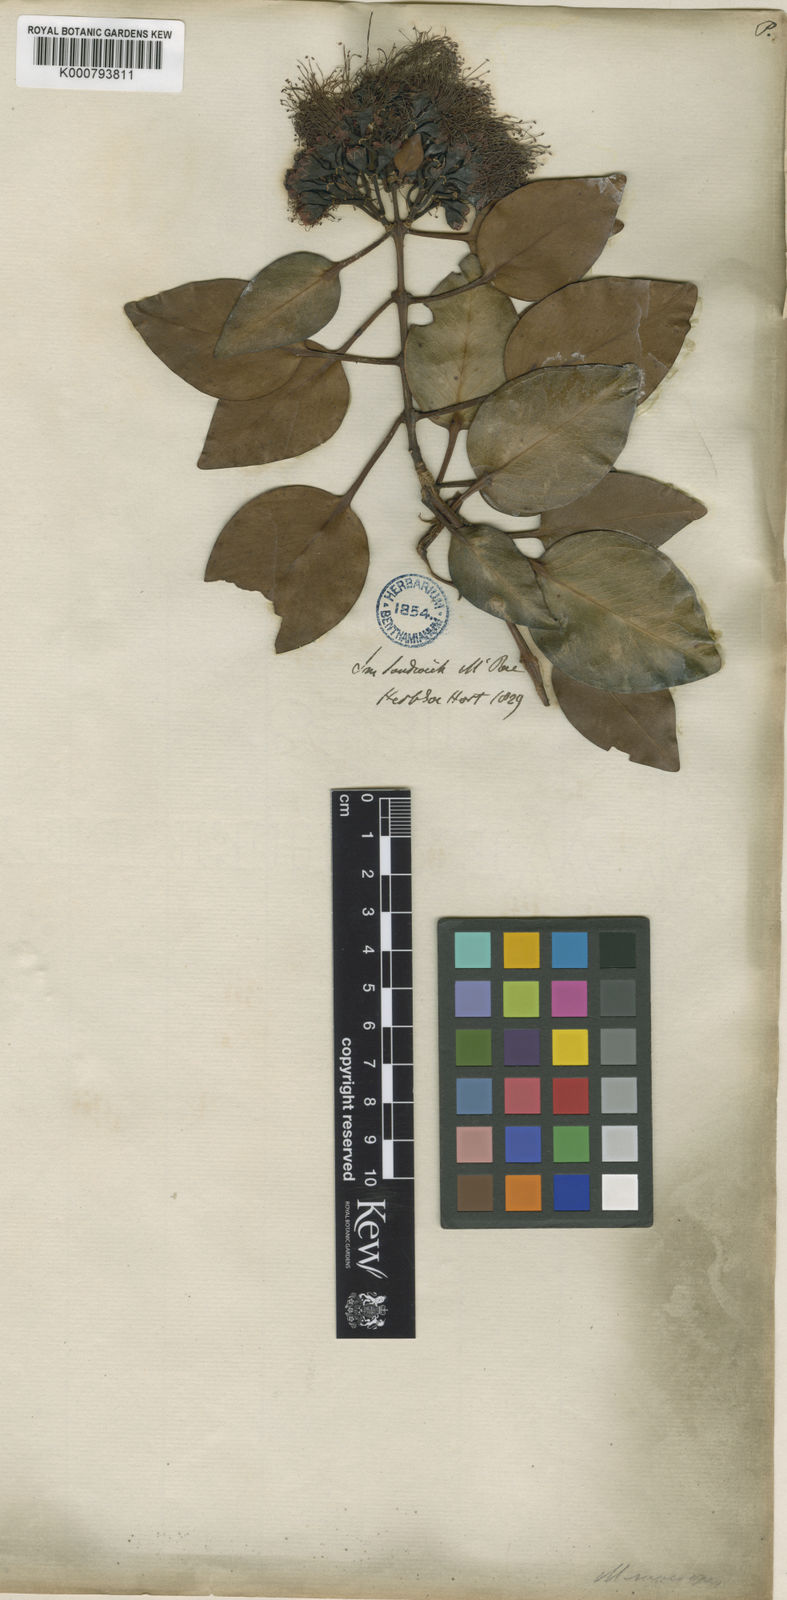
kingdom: Plantae
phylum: Tracheophyta
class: Magnoliopsida
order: Myrtales
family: Myrtaceae
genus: Metrosideros
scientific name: Metrosideros macropus
